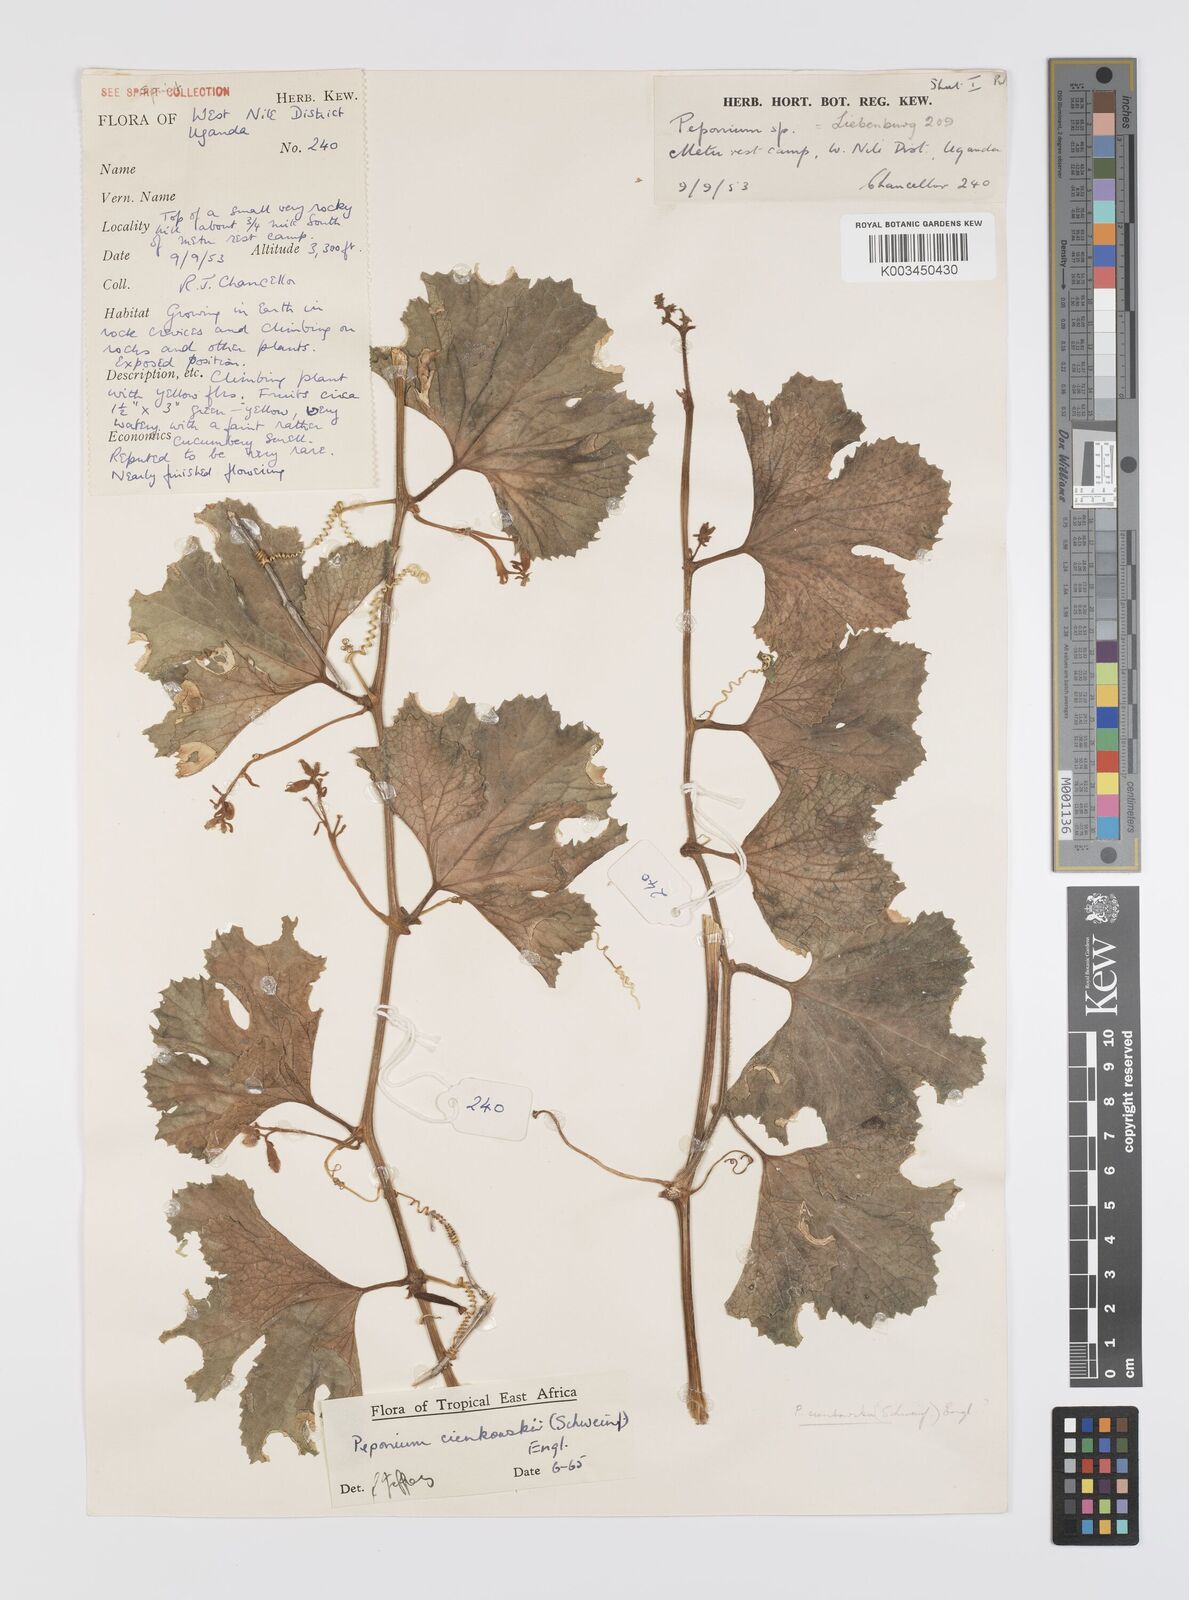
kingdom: Plantae
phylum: Tracheophyta
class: Magnoliopsida
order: Cucurbitales
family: Cucurbitaceae
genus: Peponium
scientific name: Peponium cienkowskii
